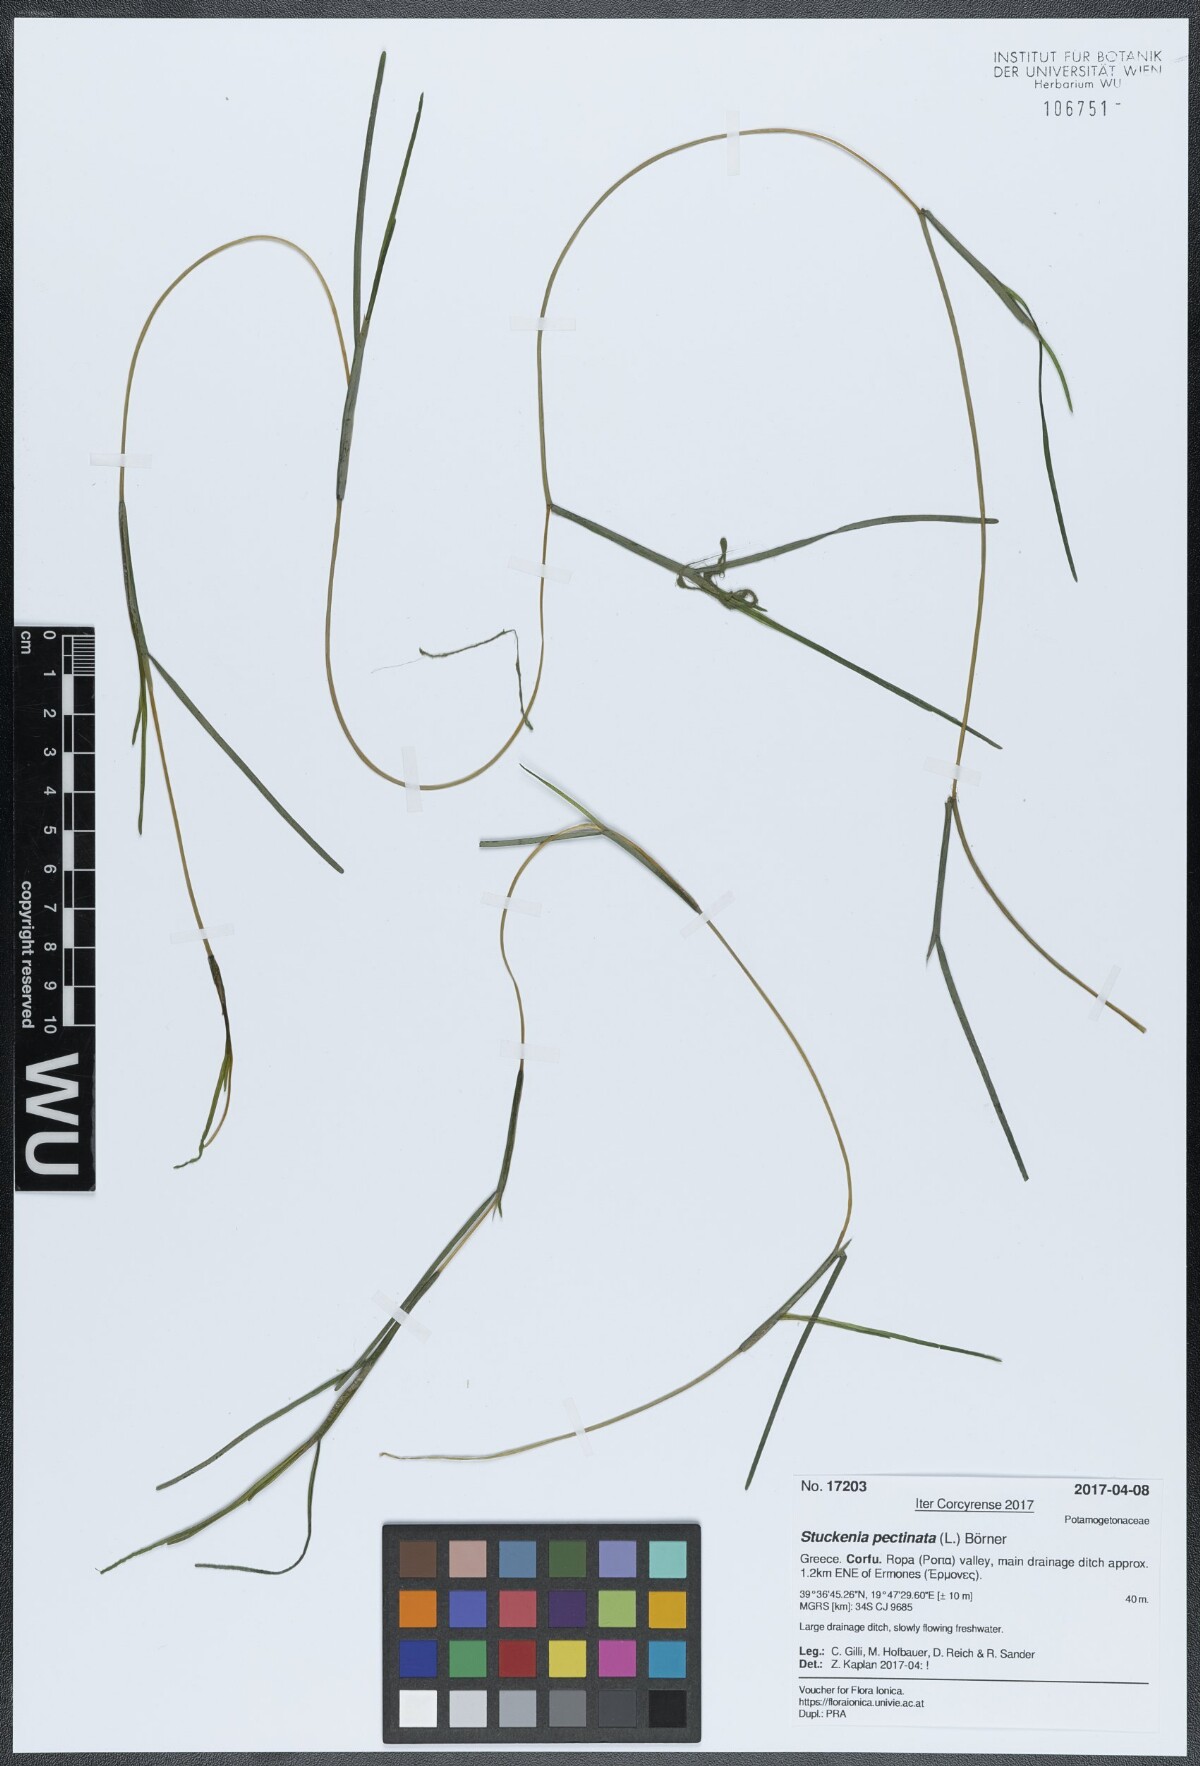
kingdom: Plantae
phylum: Tracheophyta
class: Liliopsida
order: Alismatales
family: Potamogetonaceae
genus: Stuckenia
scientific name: Stuckenia pectinata
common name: Sago pondweed
